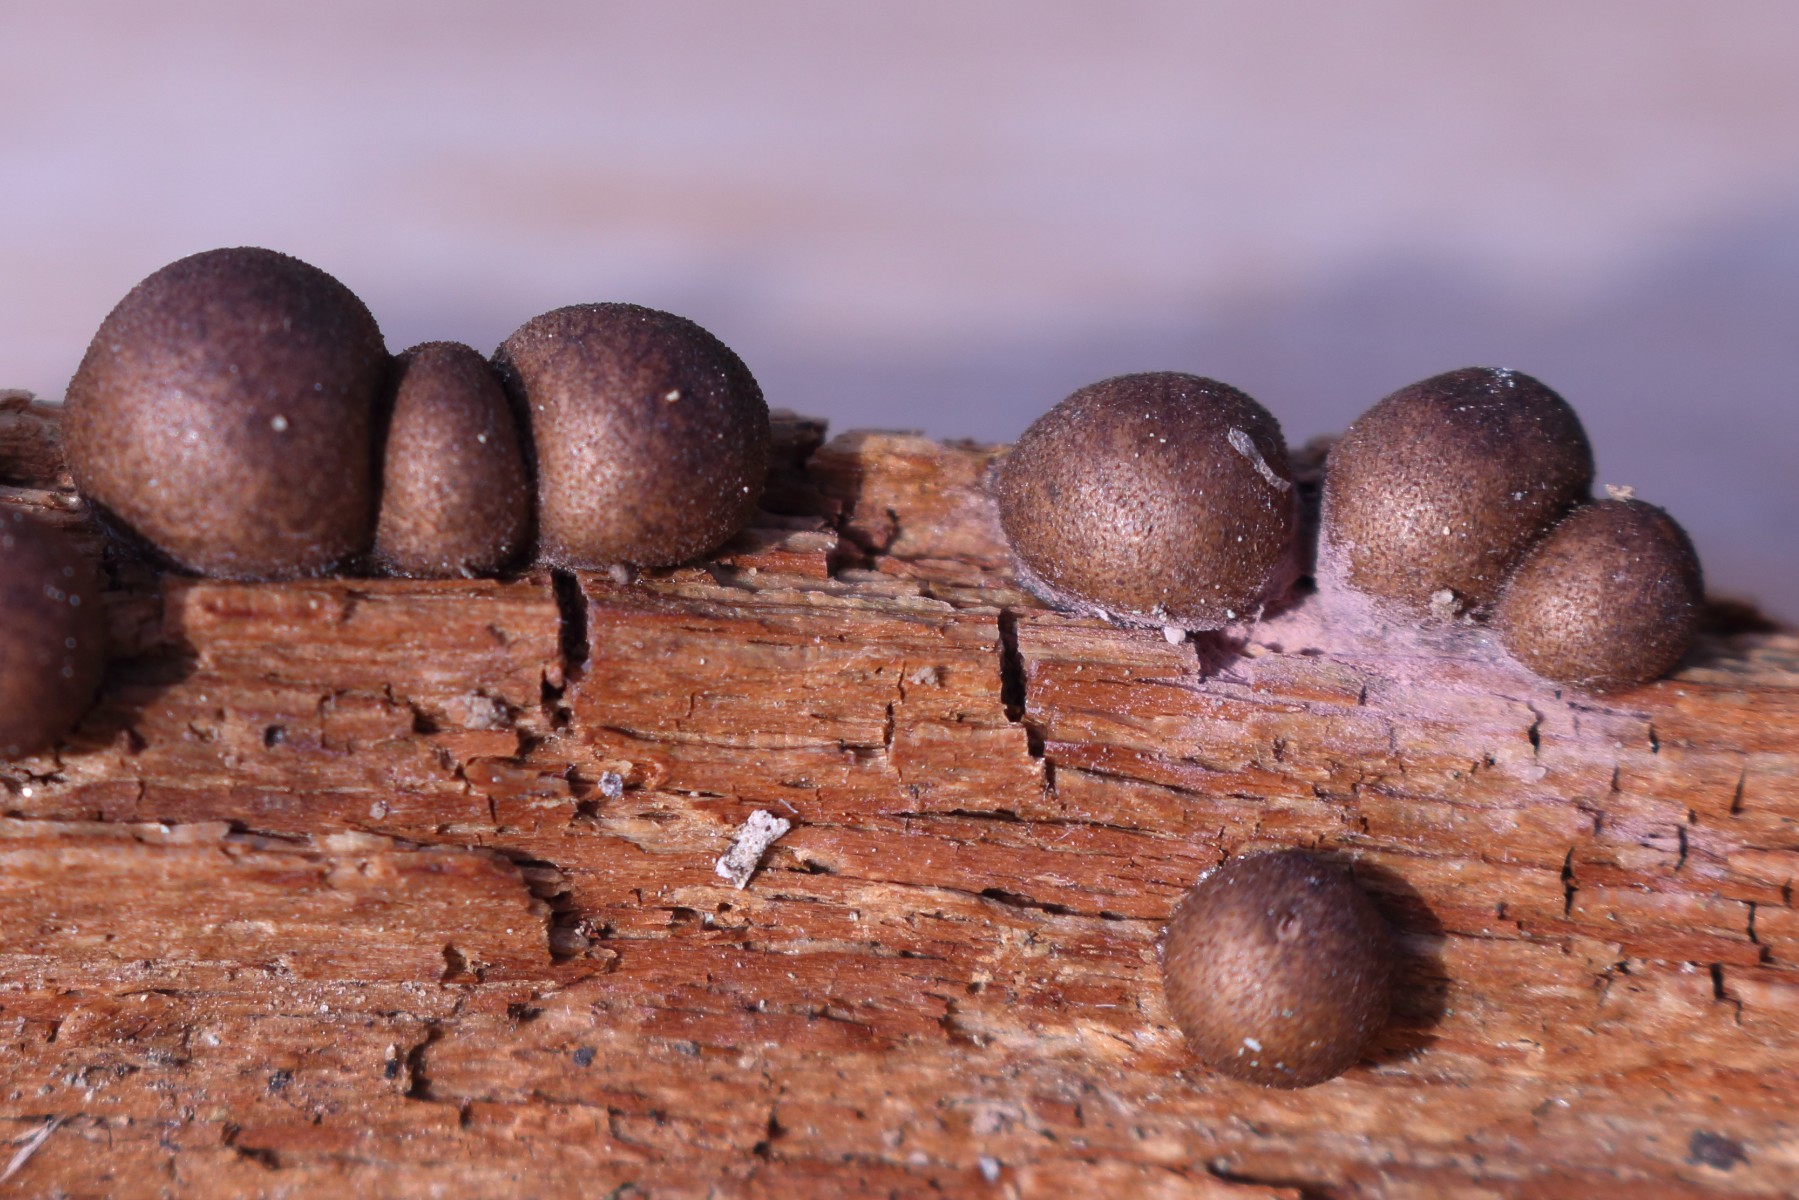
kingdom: Protozoa
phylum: Mycetozoa
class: Myxomycetes
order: Cribrariales
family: Tubiferaceae
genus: Lycogala
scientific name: Lycogala epidendrum
